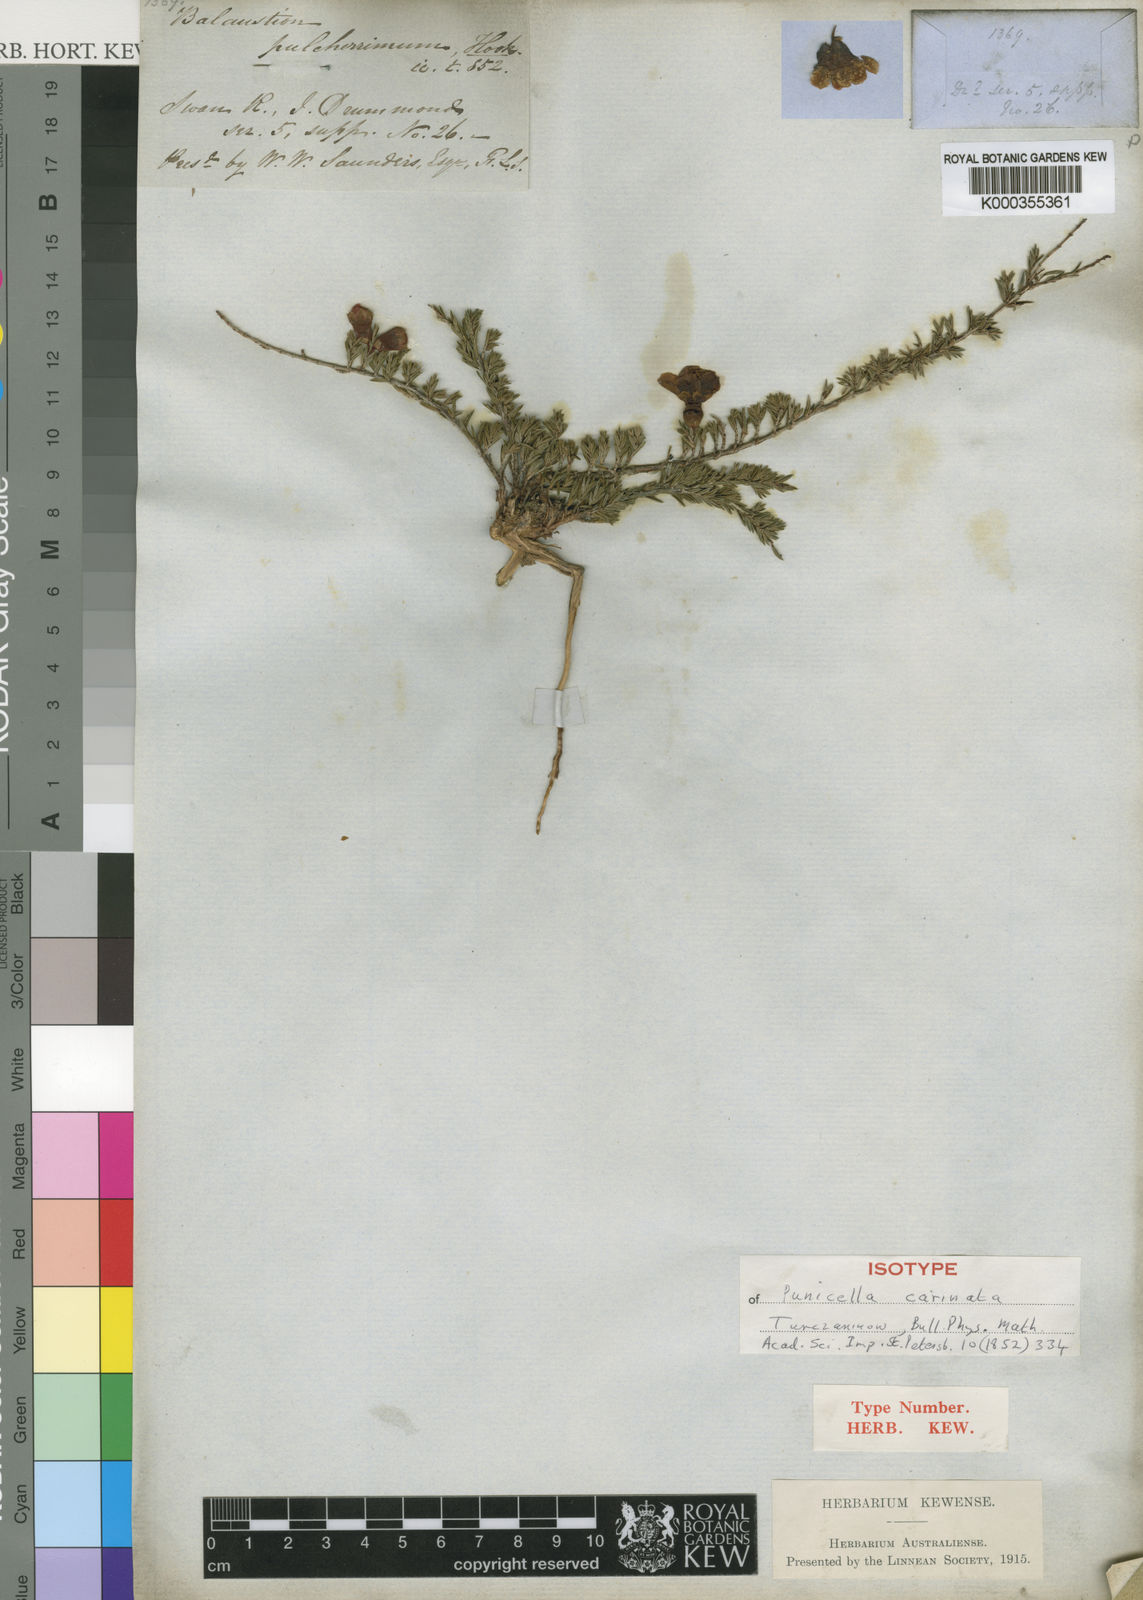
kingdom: Plantae
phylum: Tracheophyta
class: Magnoliopsida
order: Myrtales
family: Myrtaceae
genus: Balaustion
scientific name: Balaustion pulcherrimum
